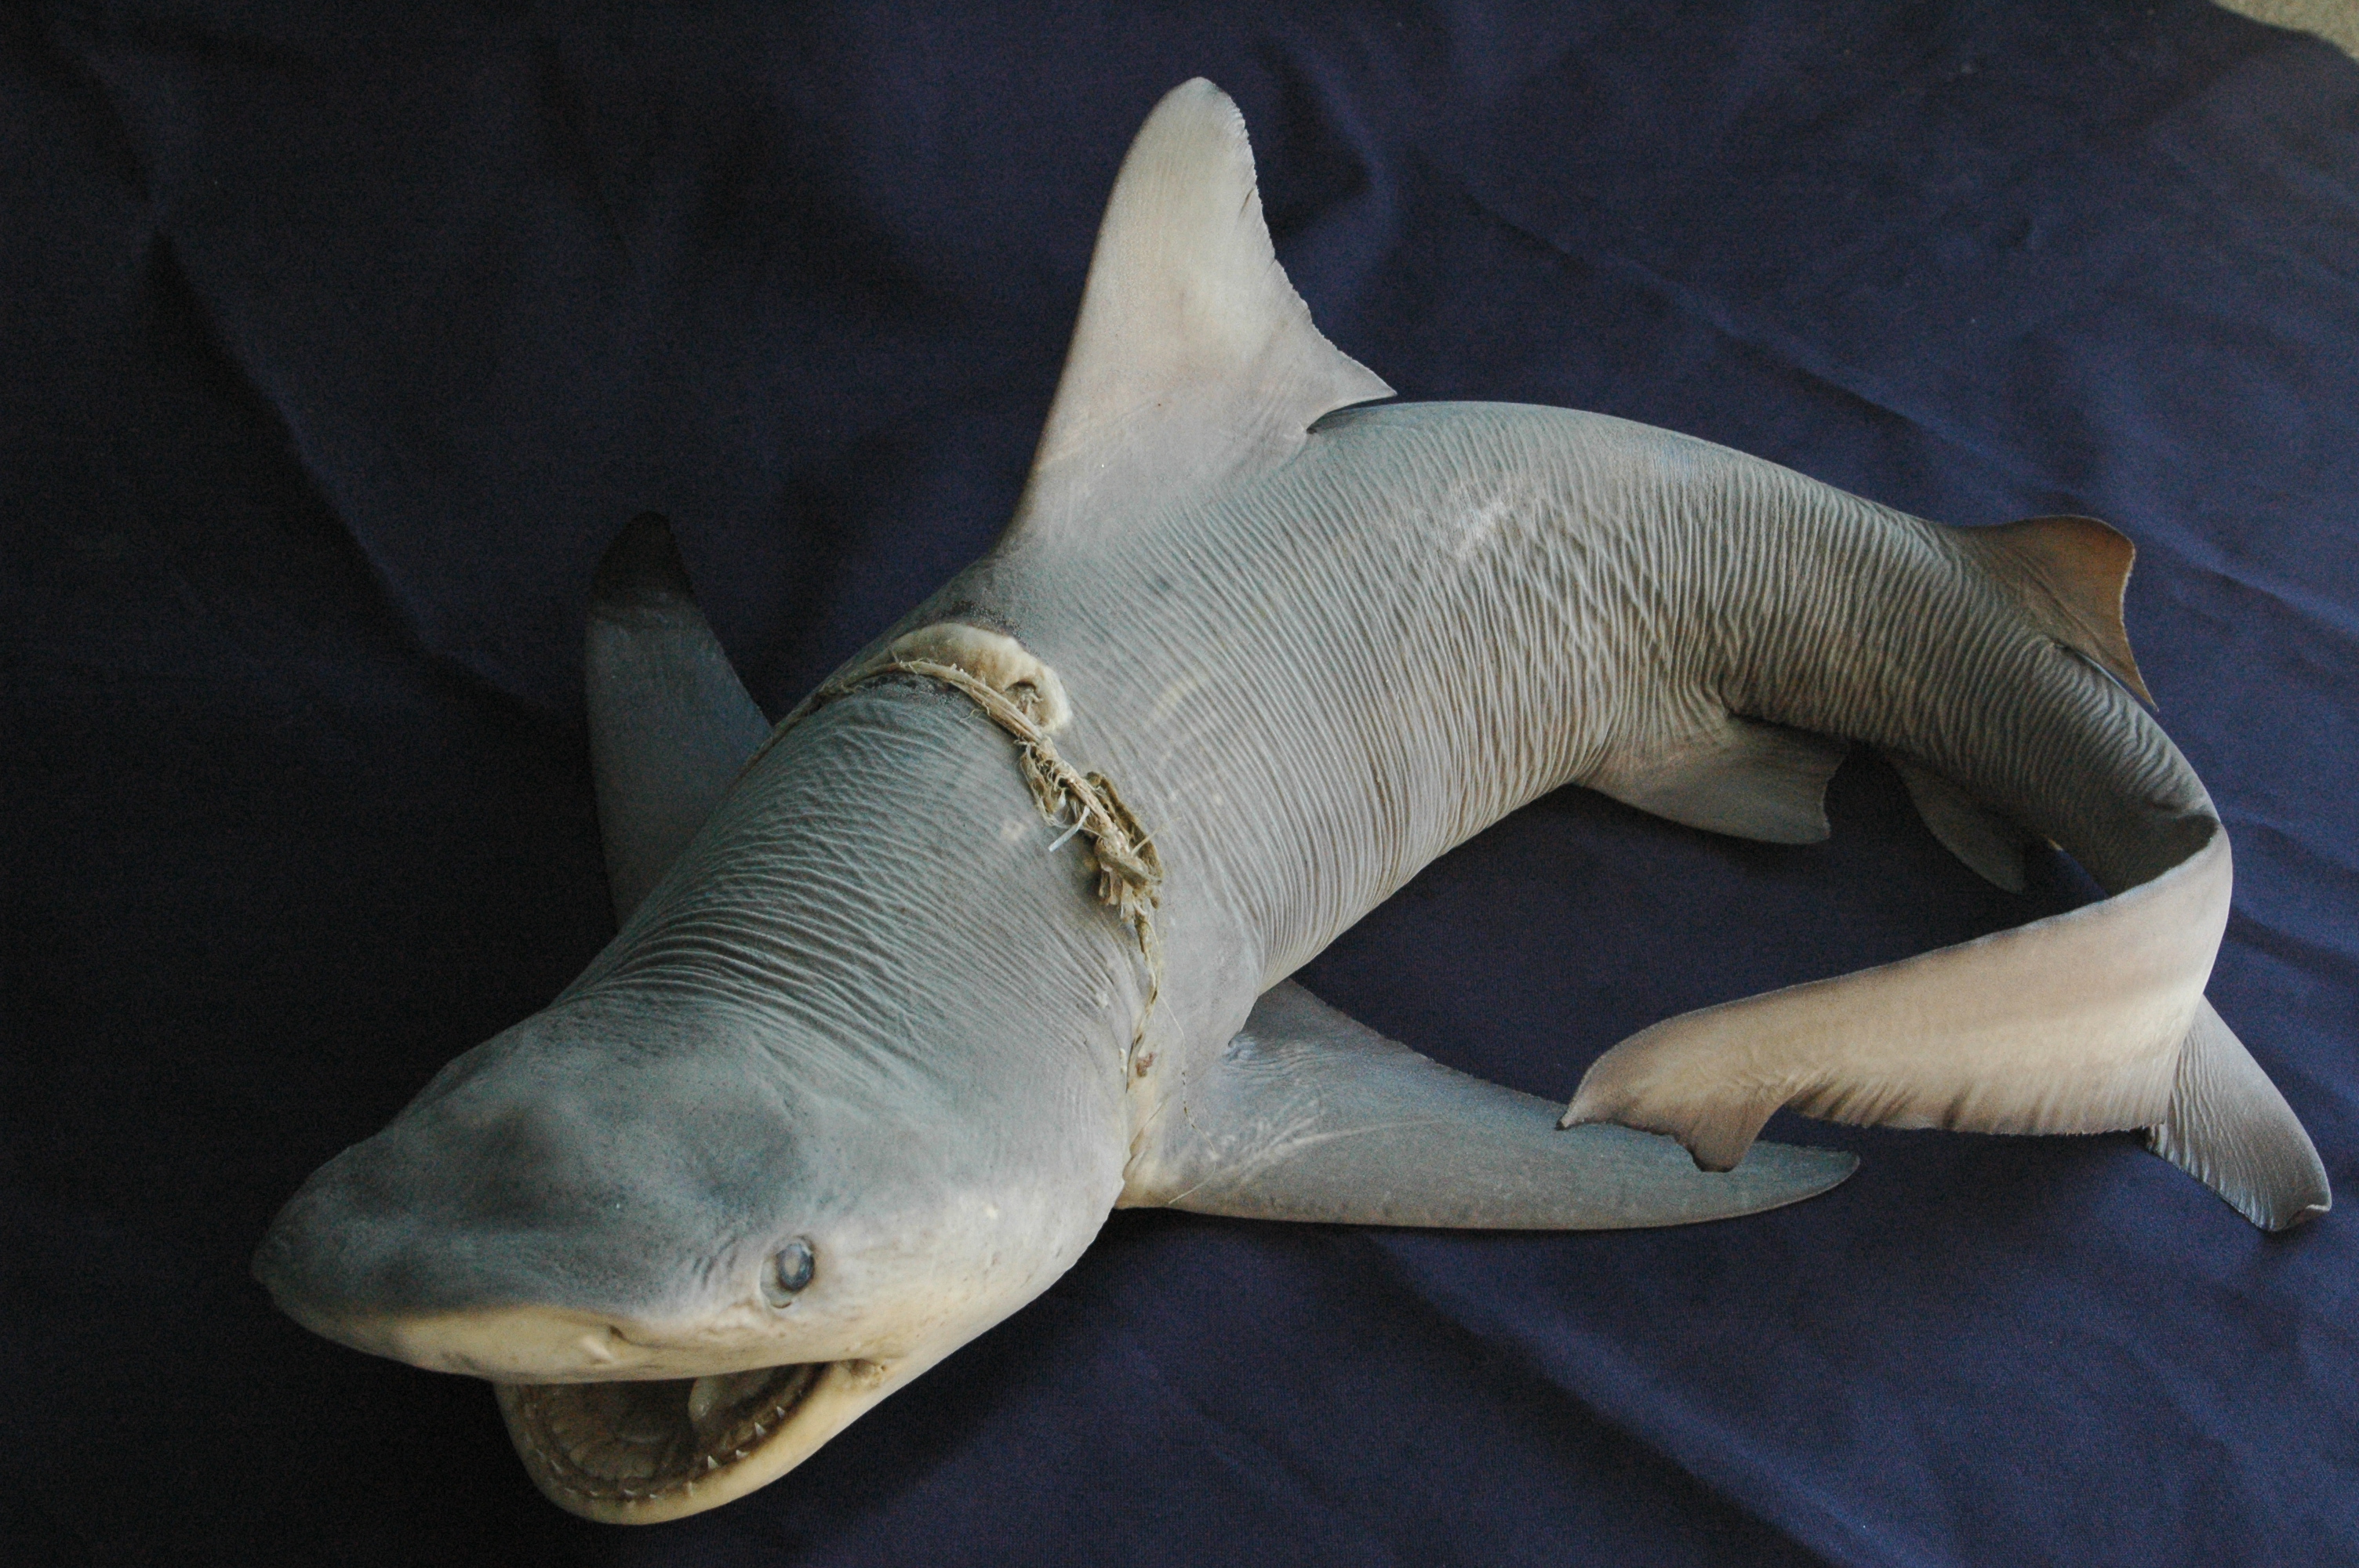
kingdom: Animalia
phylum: Chordata
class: Elasmobranchii
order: Carcharhiniformes
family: Carcharhinidae
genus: Carcharhinus
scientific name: Carcharhinus leucas
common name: Bull shark
